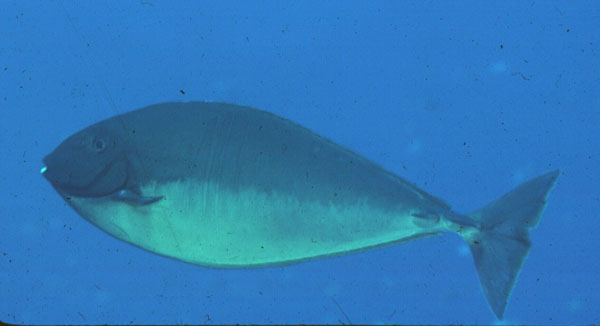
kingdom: Animalia
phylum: Chordata
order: Perciformes
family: Acanthuridae
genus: Naso
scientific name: Naso hexacanthus
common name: Black unicornfish
